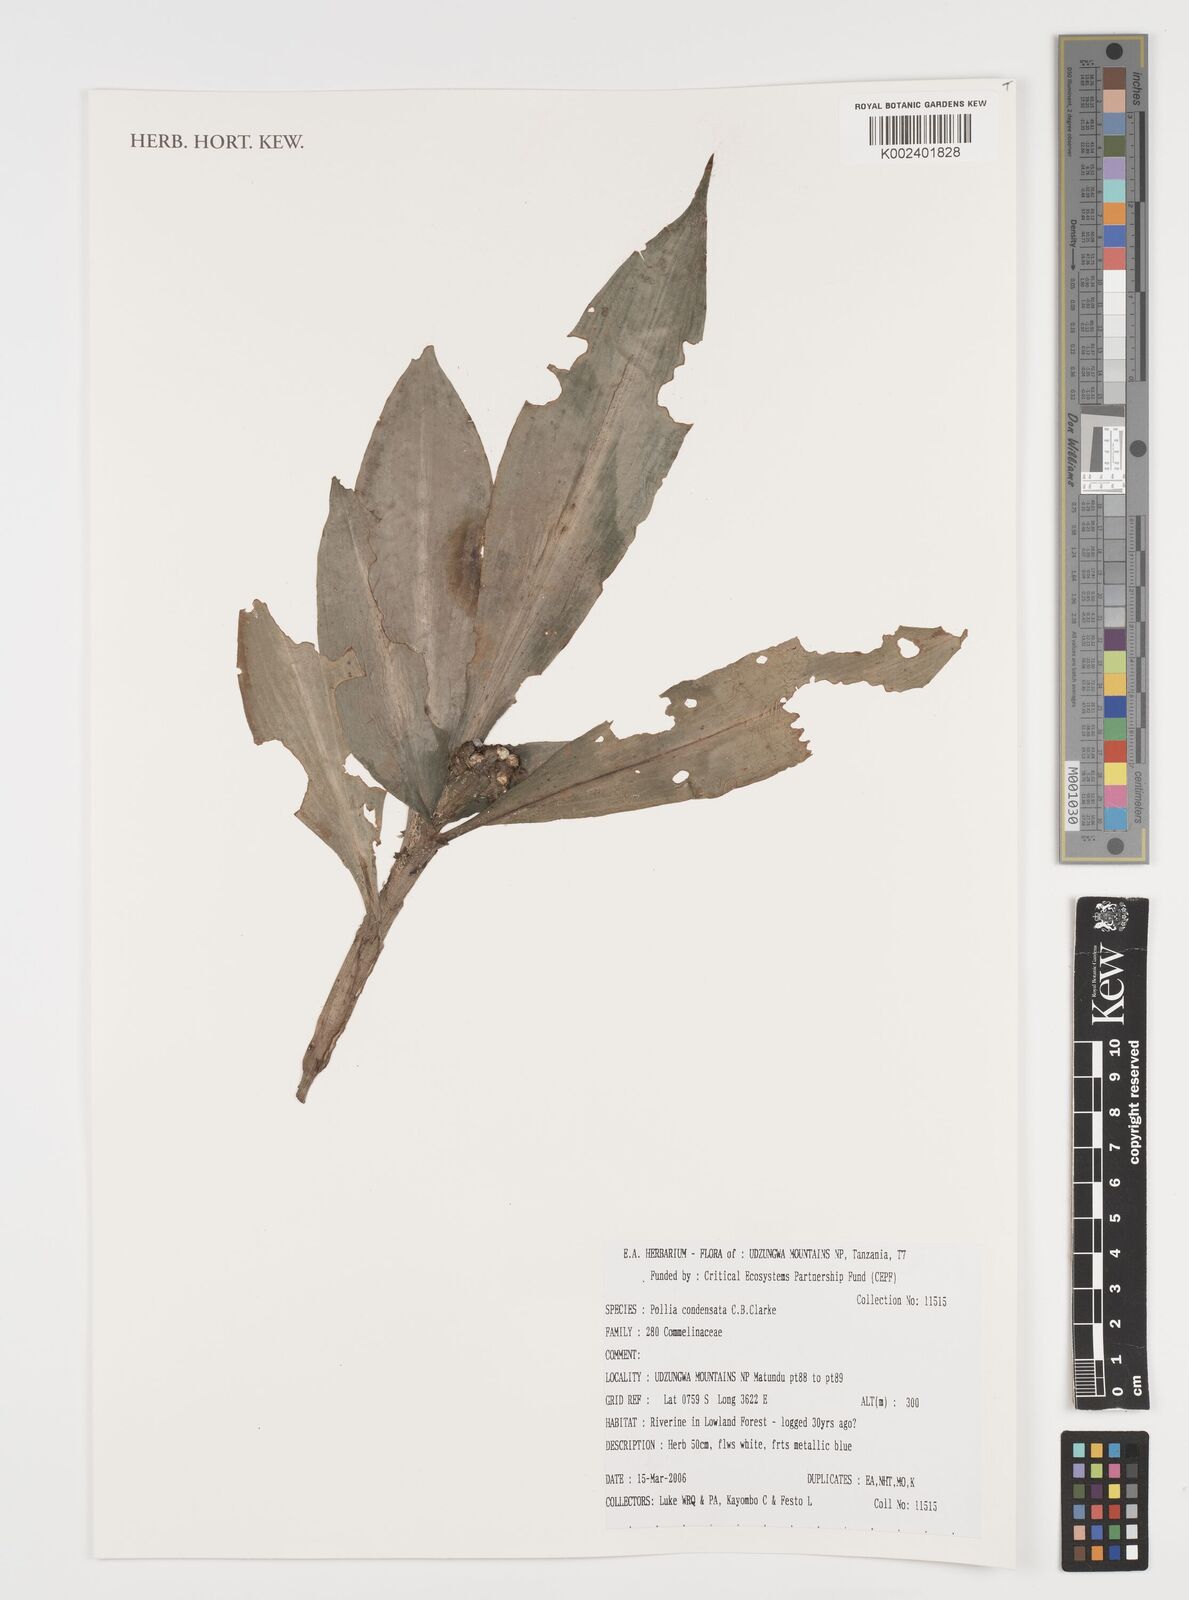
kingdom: Plantae
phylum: Tracheophyta
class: Liliopsida
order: Commelinales
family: Commelinaceae
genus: Pollia
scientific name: Pollia condensata
